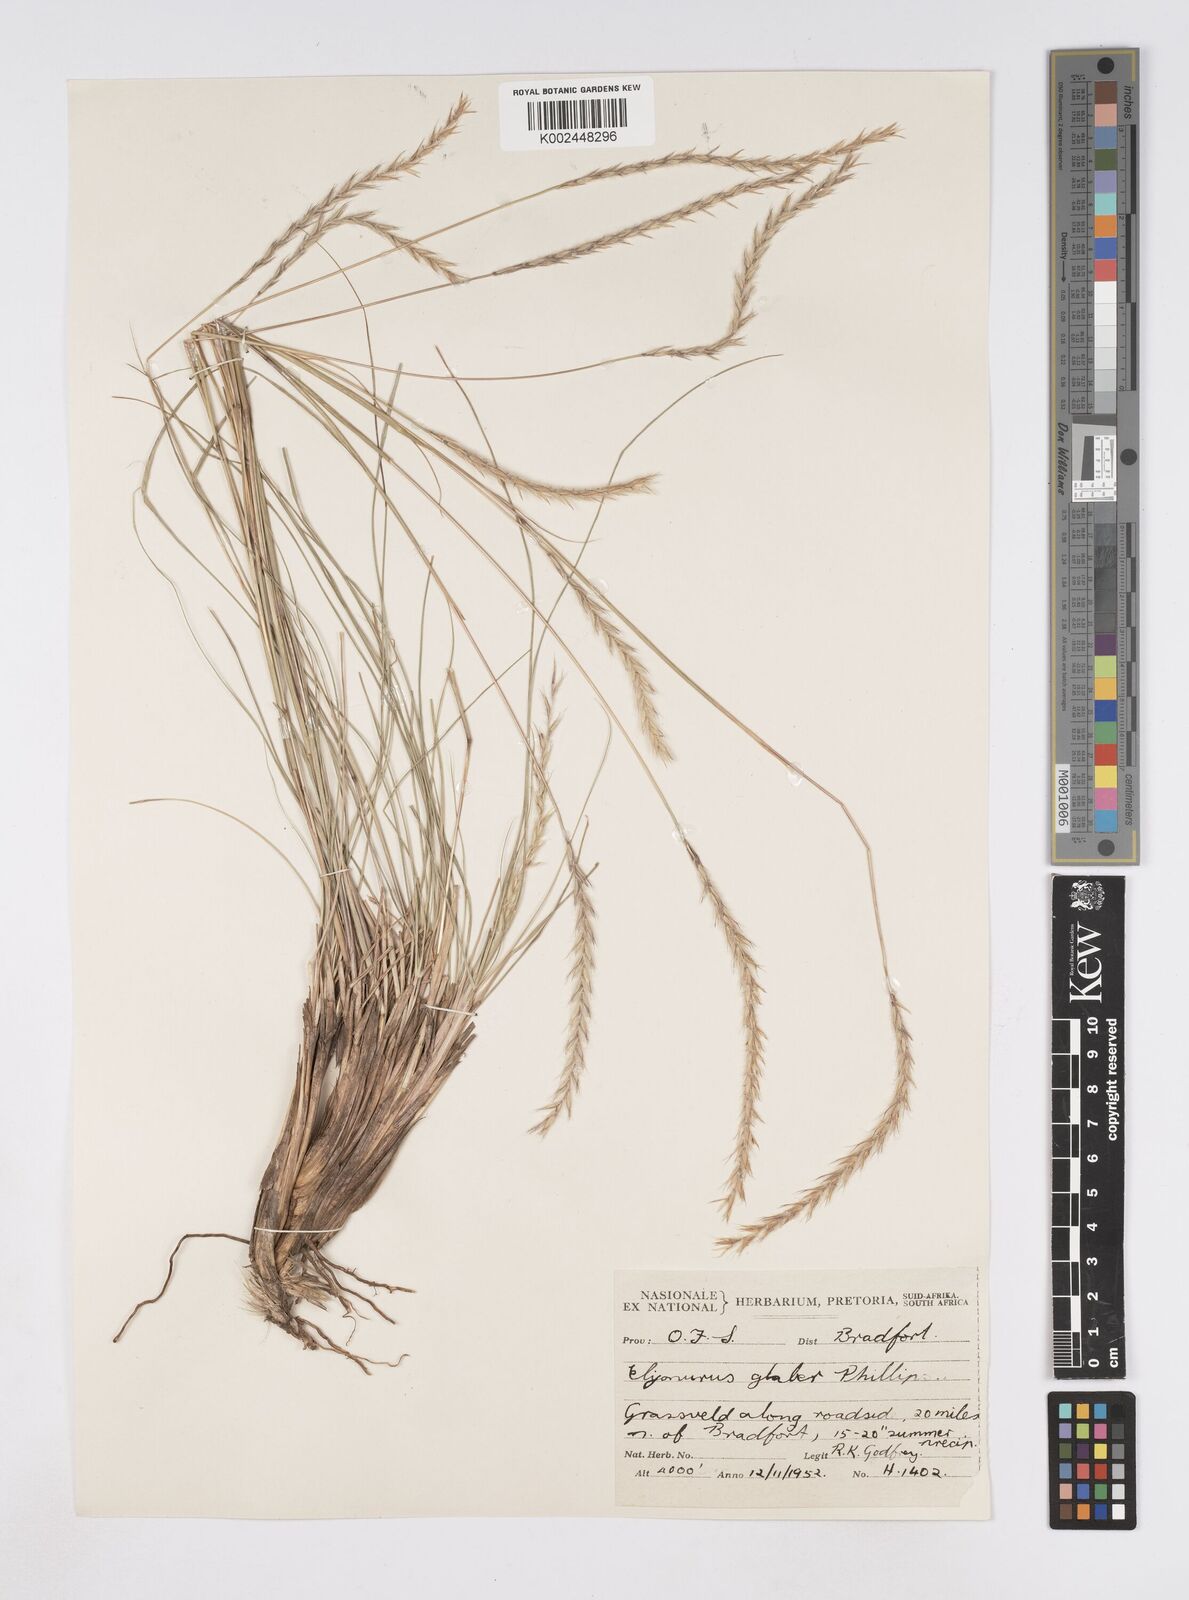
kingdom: Plantae
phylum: Tracheophyta
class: Liliopsida
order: Poales
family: Poaceae
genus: Elionurus
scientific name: Elionurus muticus
